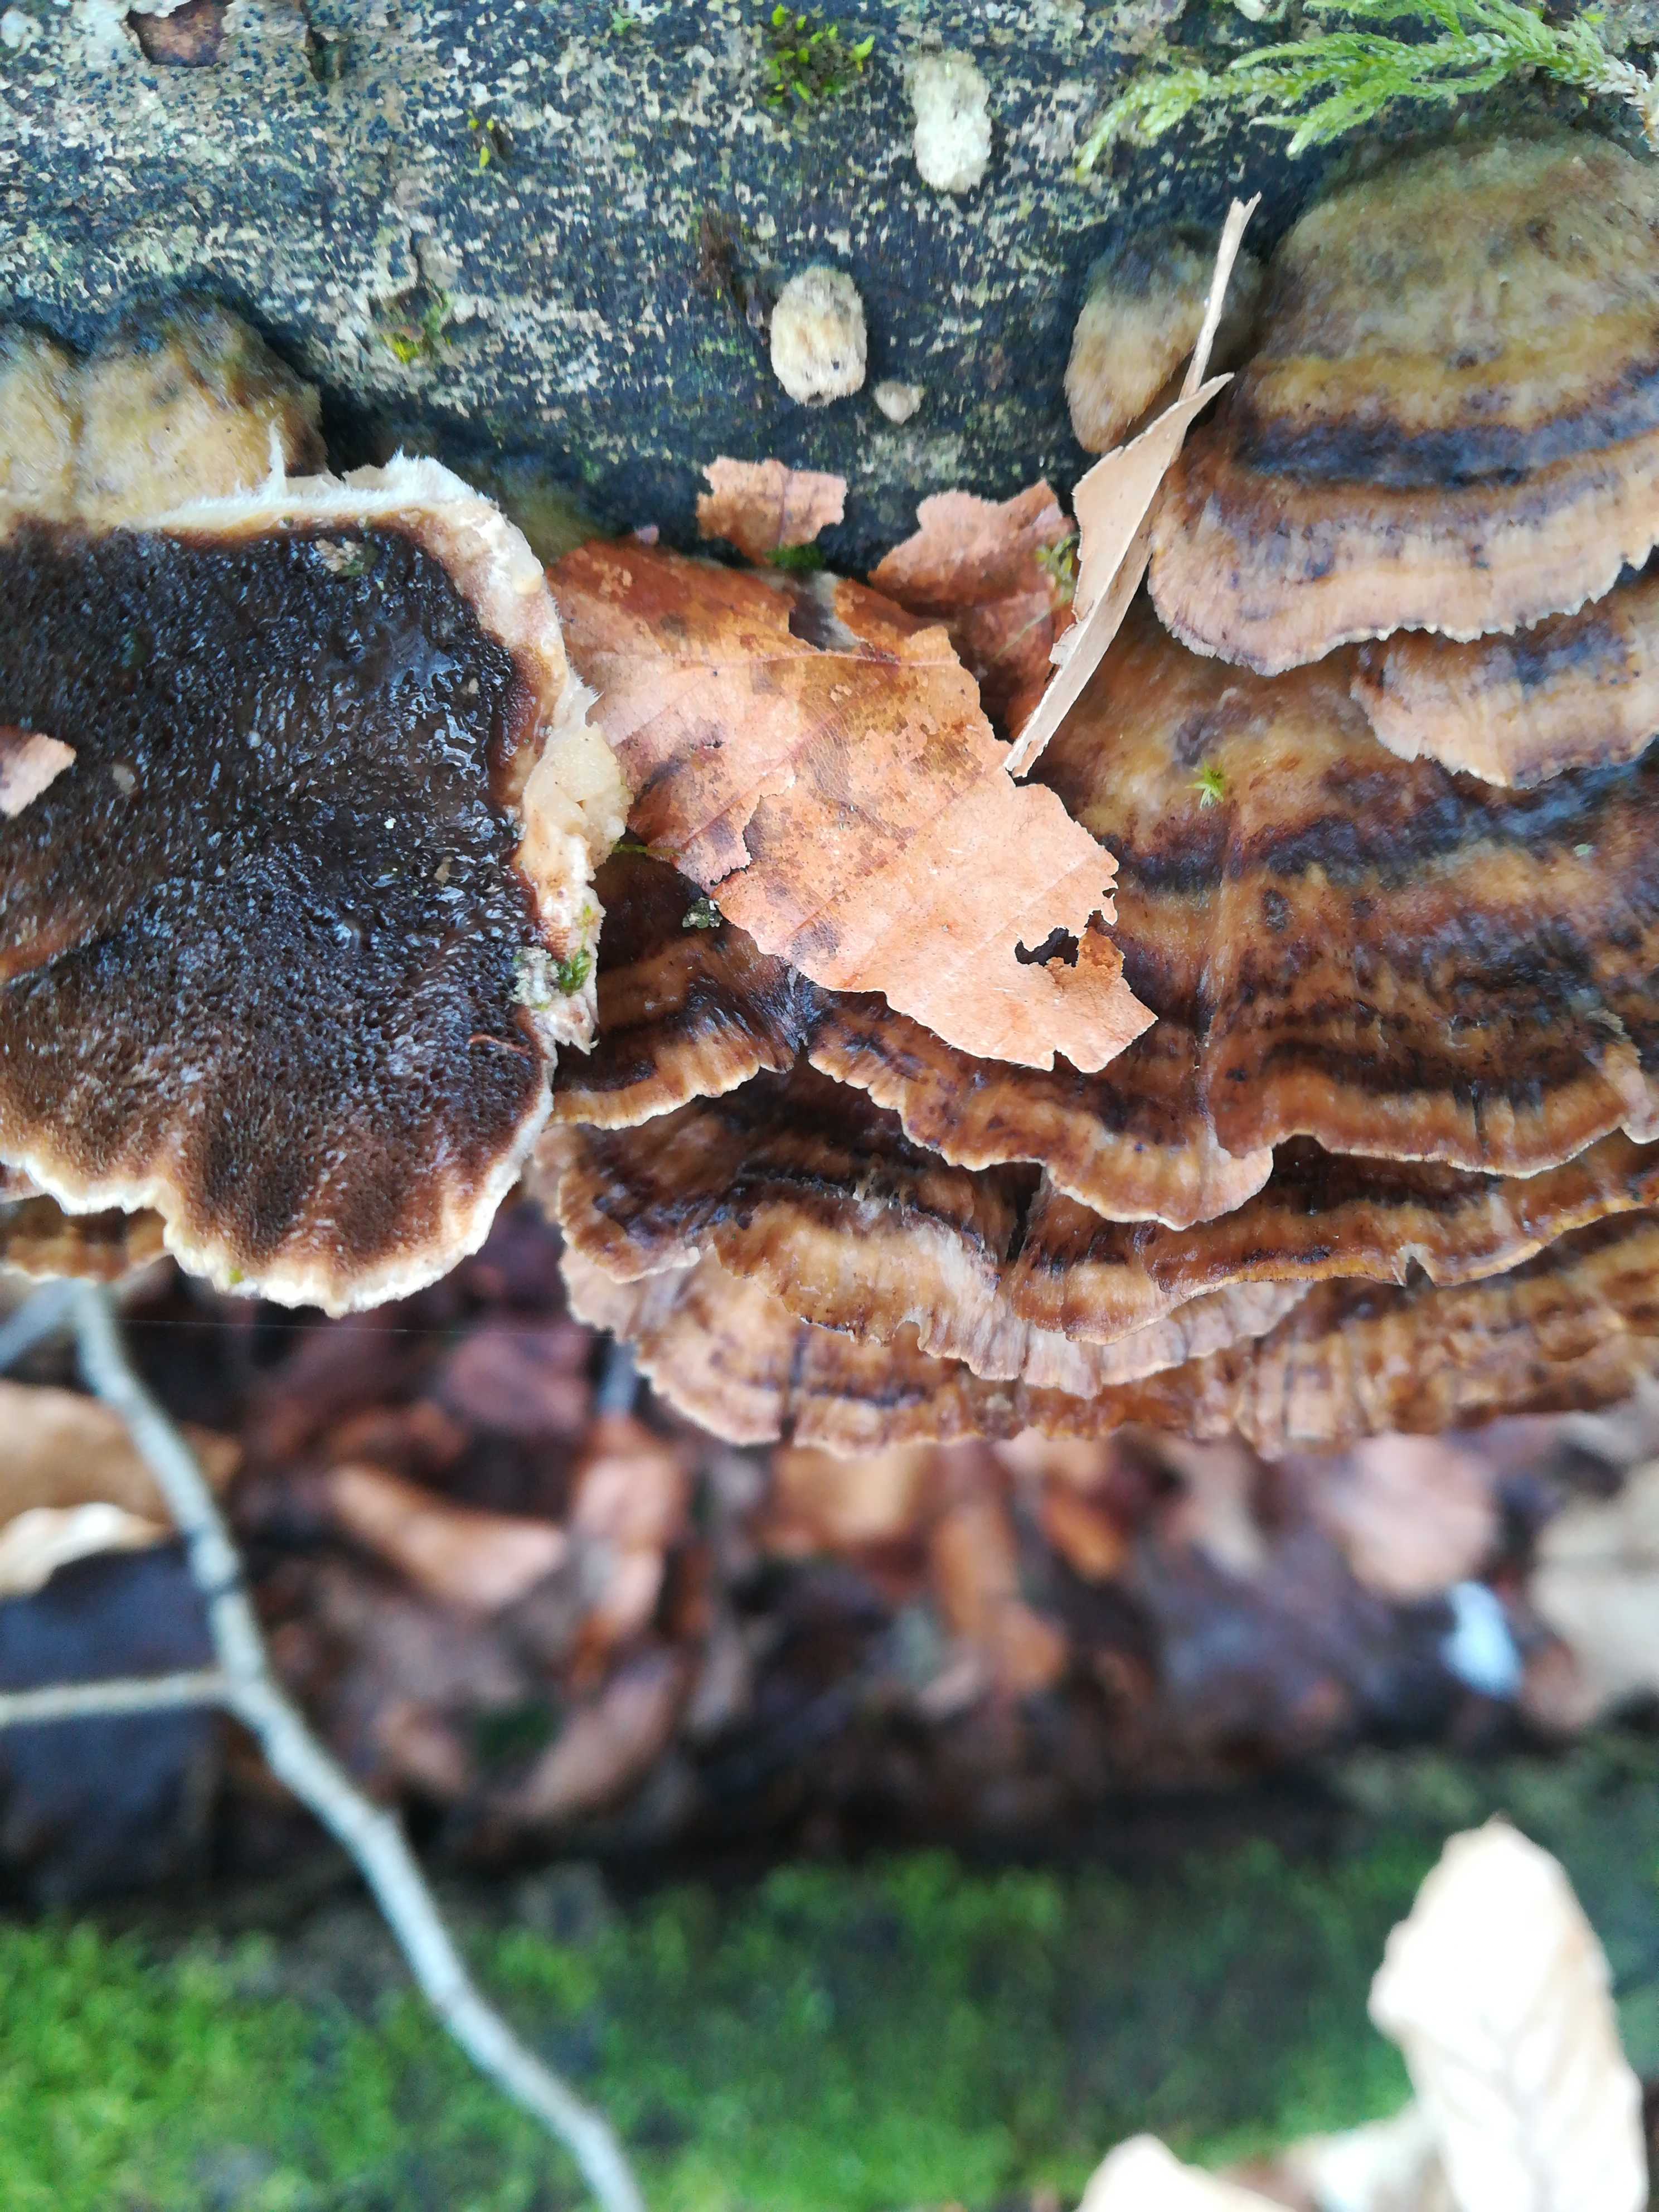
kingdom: Fungi
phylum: Basidiomycota
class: Agaricomycetes
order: Polyporales
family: Phanerochaetaceae
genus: Bjerkandera
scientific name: Bjerkandera adusta
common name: sveden sodporesvamp
